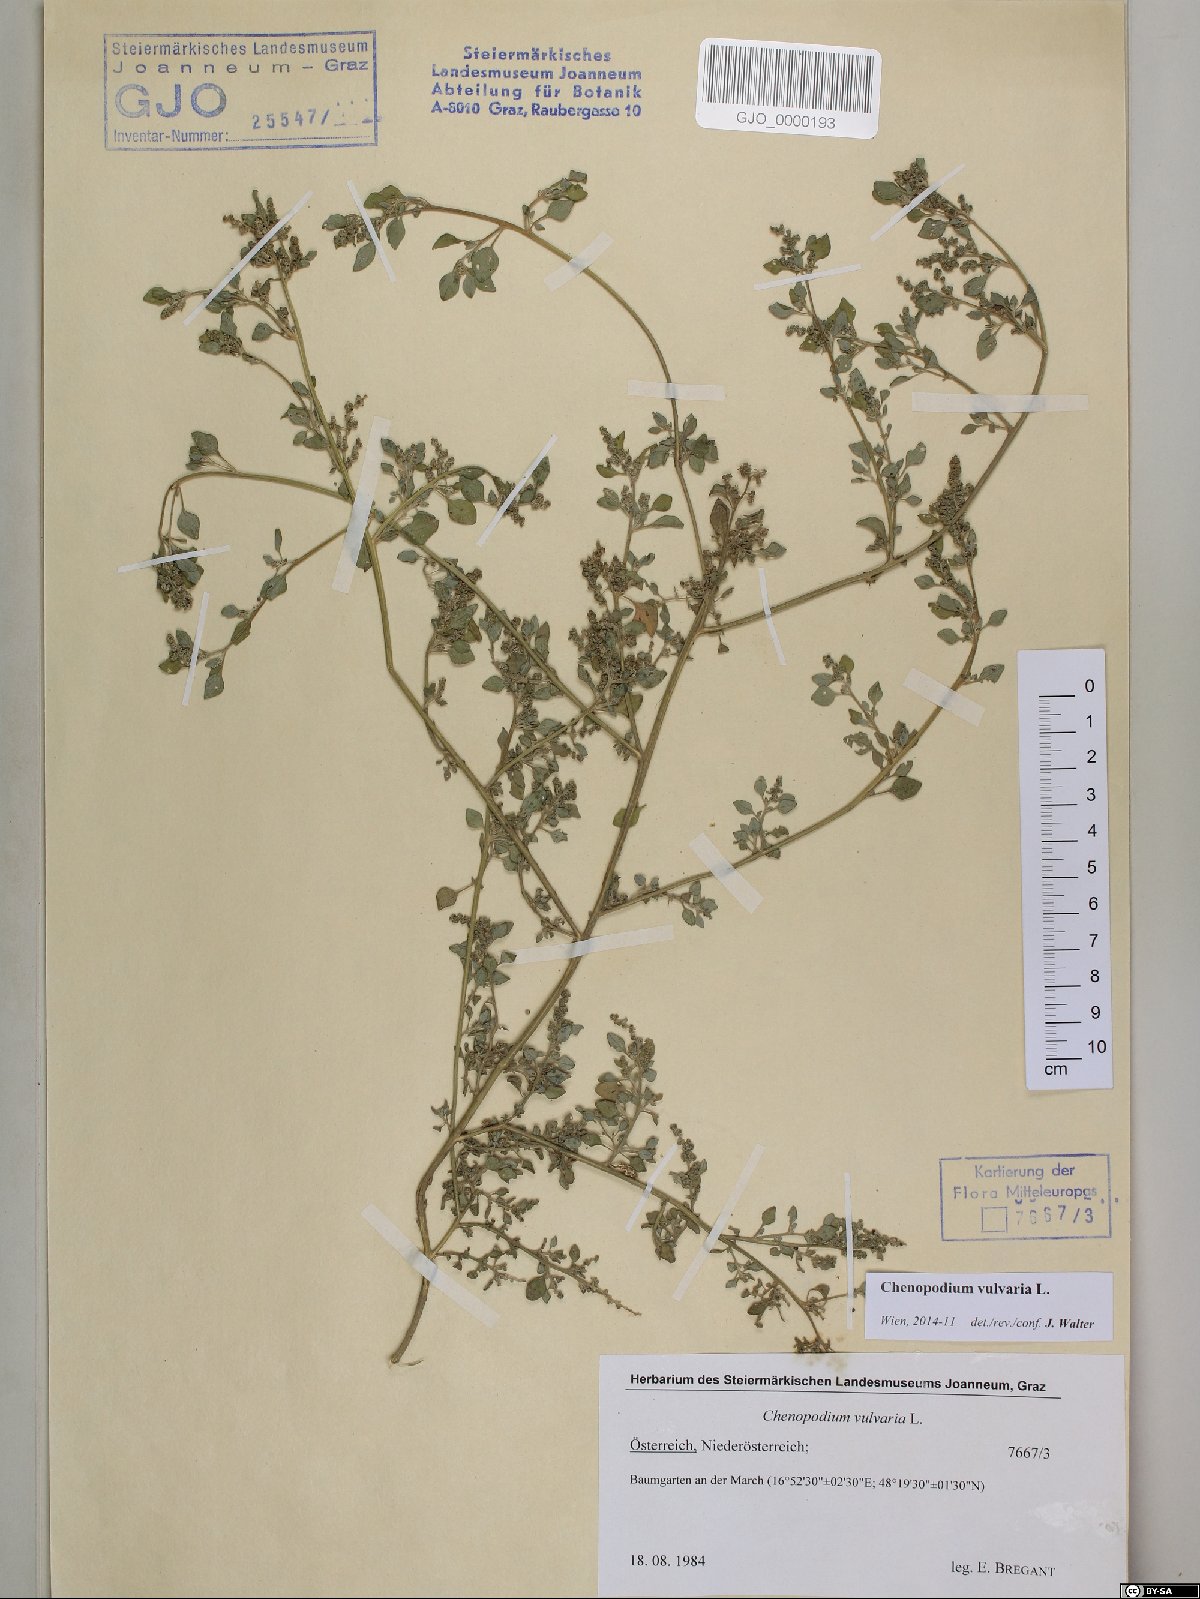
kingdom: Plantae
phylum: Tracheophyta
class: Magnoliopsida
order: Caryophyllales
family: Amaranthaceae
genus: Chenopodium
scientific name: Chenopodium vulvaria
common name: Stinking goosefoot
